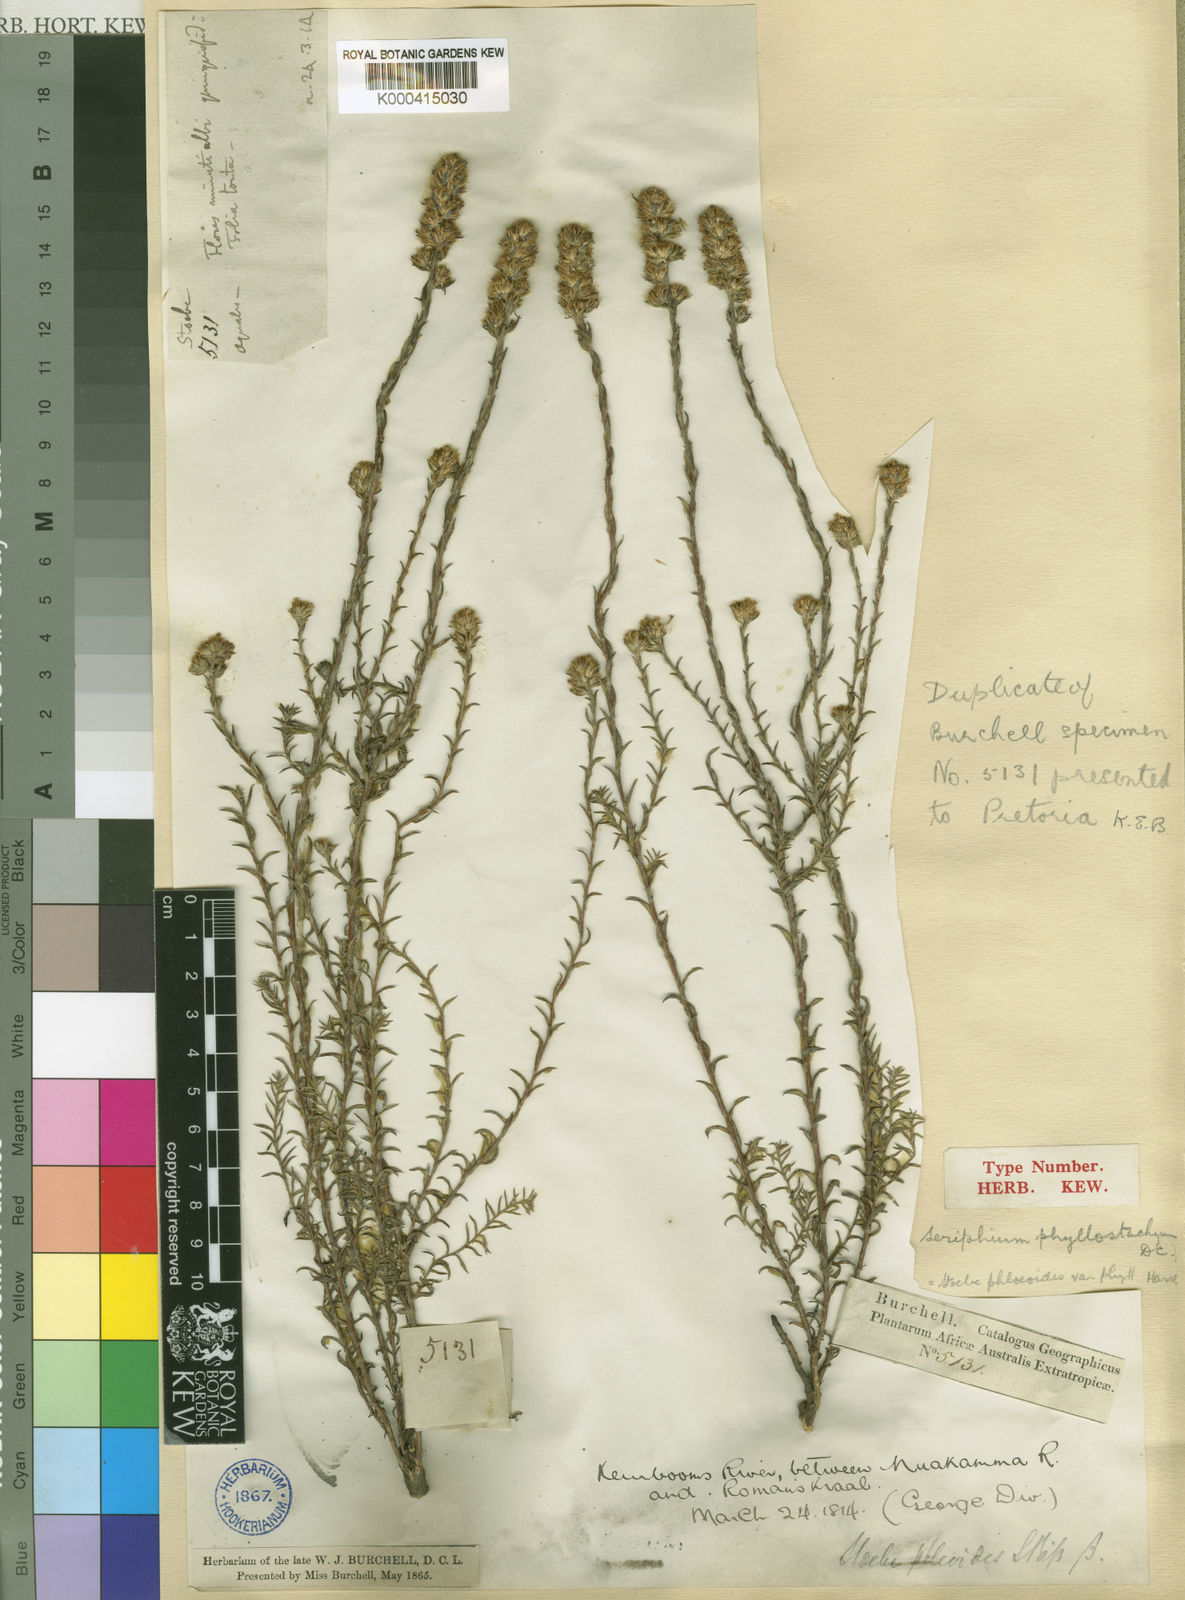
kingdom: Plantae
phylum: Tracheophyta
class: Magnoliopsida
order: Asterales
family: Asteraceae
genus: Stoebe
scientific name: Stoebe phyllostachya
